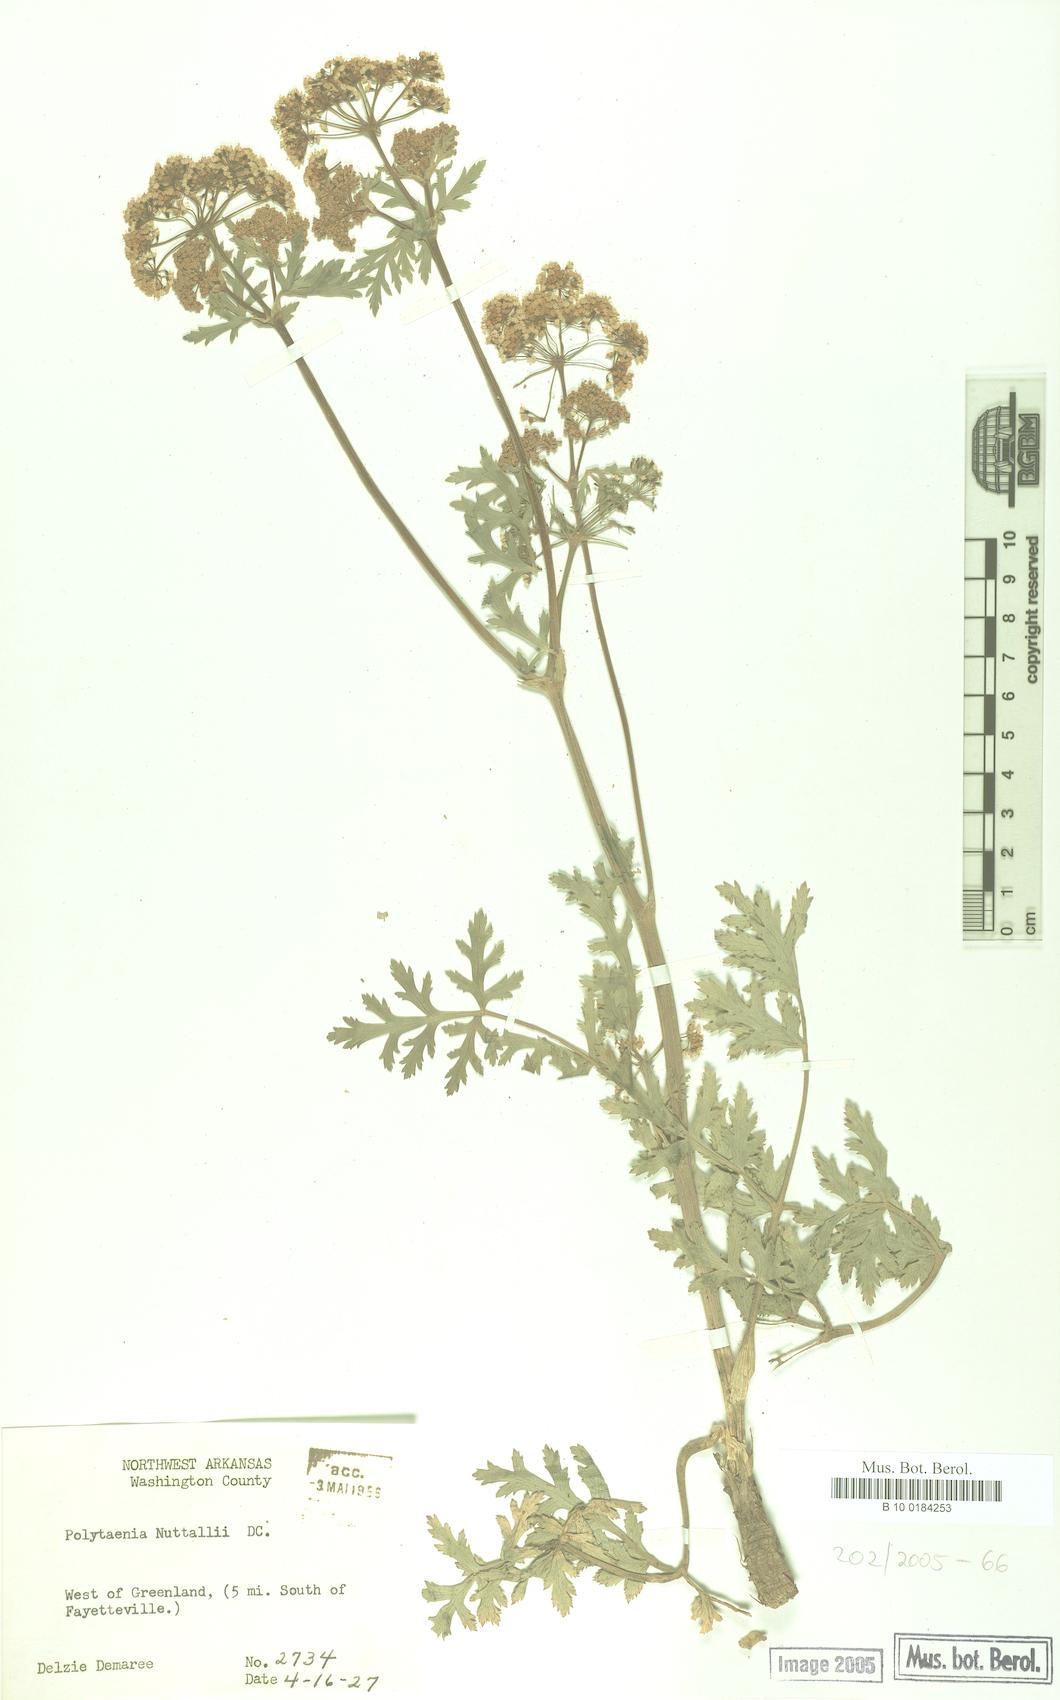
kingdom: Plantae
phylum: Tracheophyta
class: Magnoliopsida
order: Apiales
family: Apiaceae
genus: Polytaenia
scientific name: Polytaenia nuttallii
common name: Prairie-parsley
